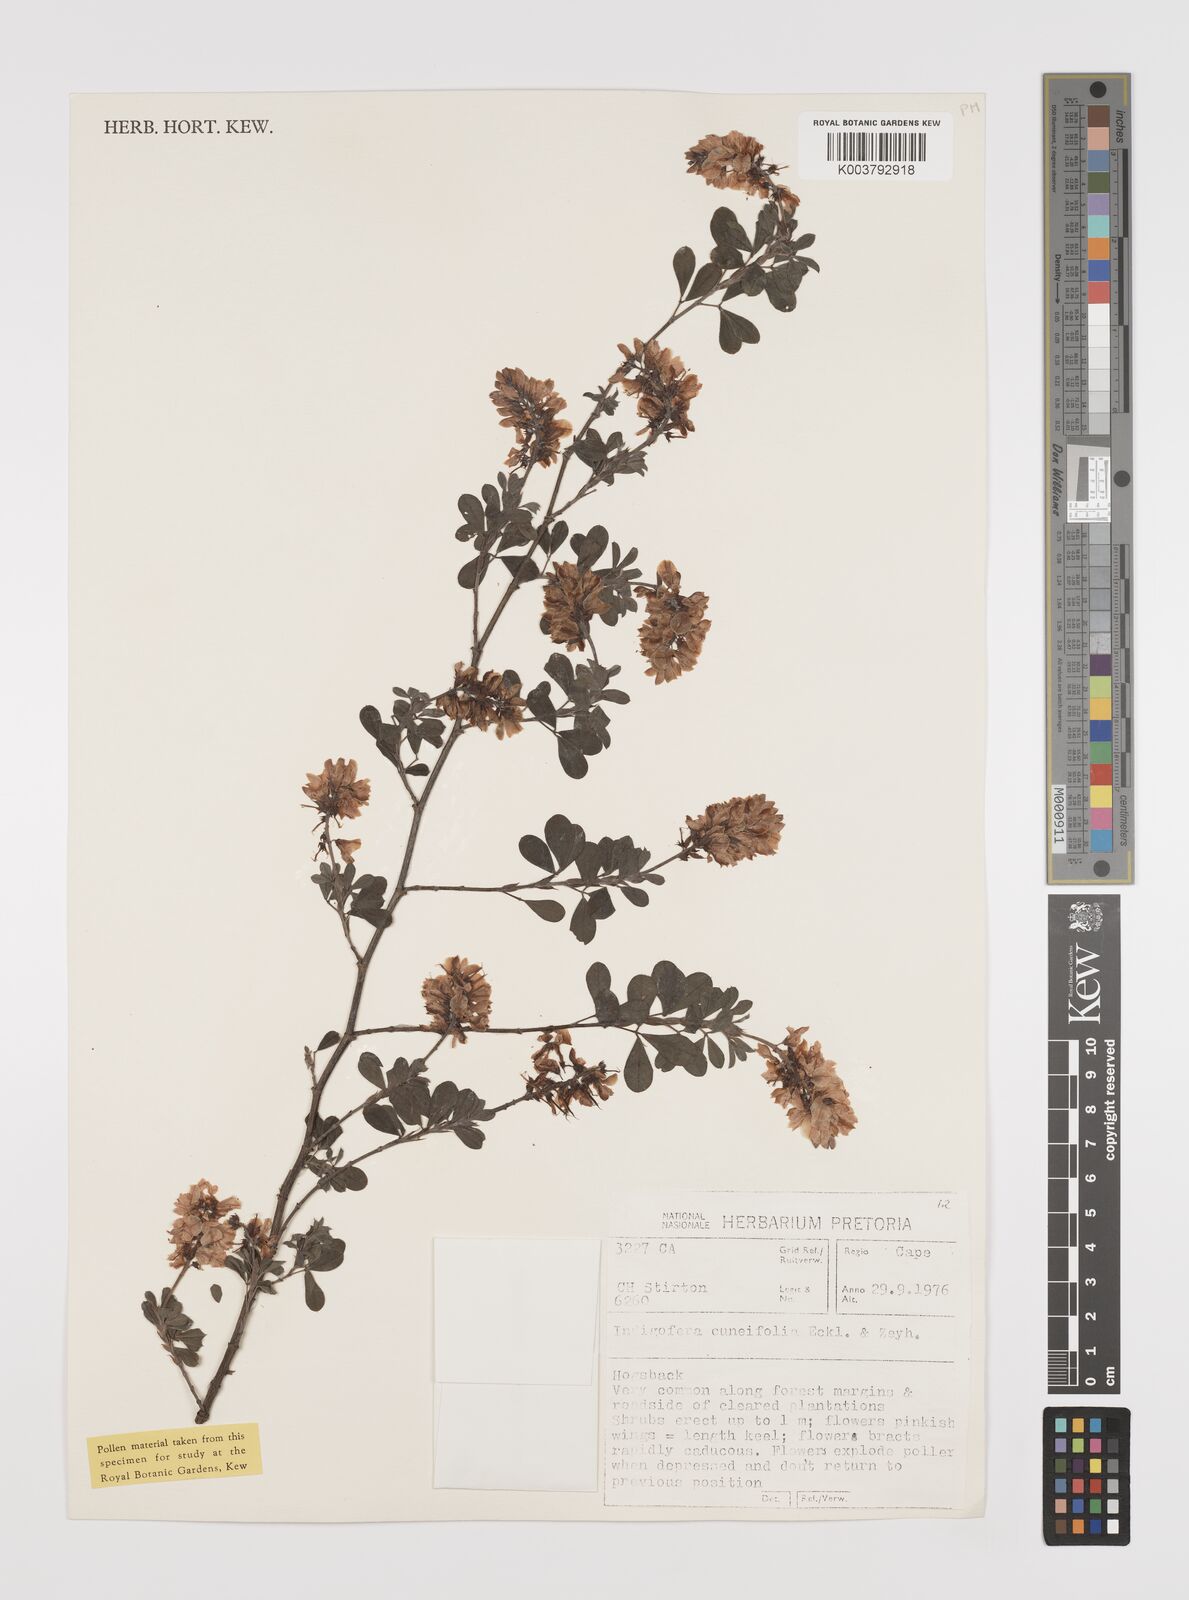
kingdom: Plantae
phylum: Tracheophyta
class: Magnoliopsida
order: Fabales
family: Fabaceae
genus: Indigofera
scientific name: Indigofera cuneifolia
